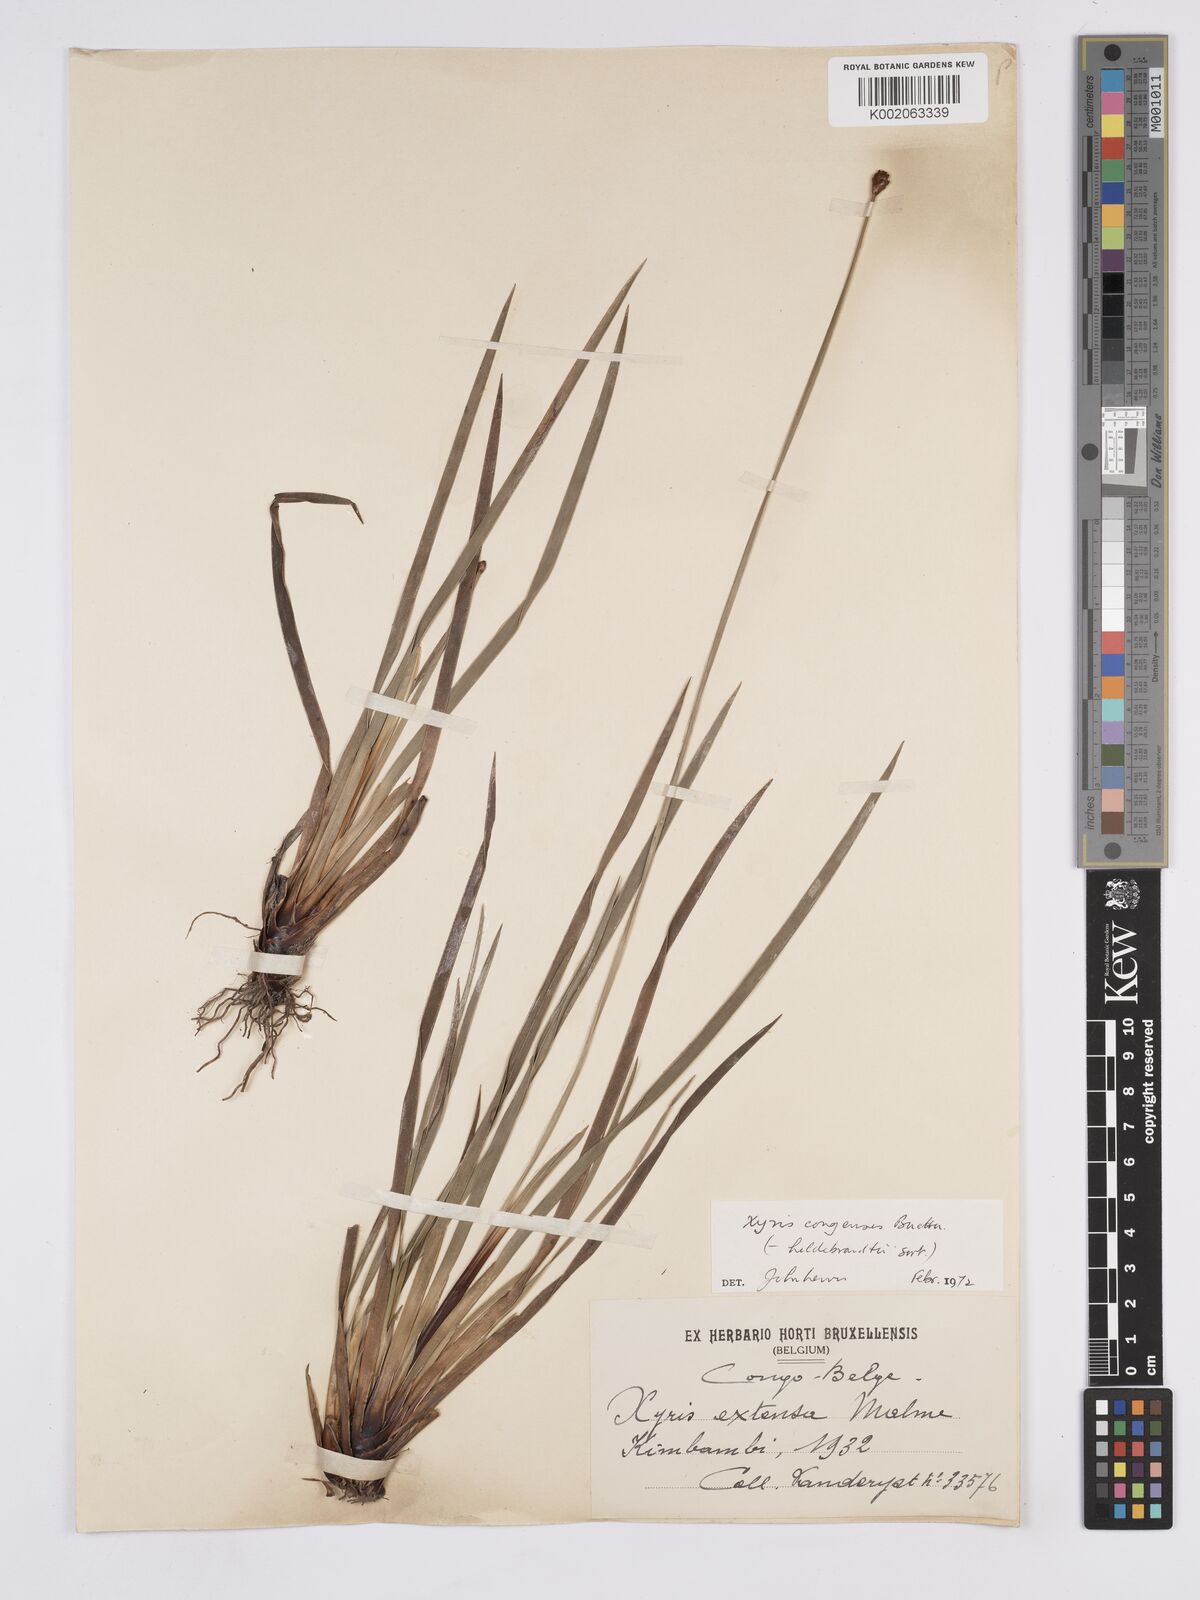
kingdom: Plantae
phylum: Tracheophyta
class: Liliopsida
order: Poales
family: Xyridaceae
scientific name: Xyridaceae
